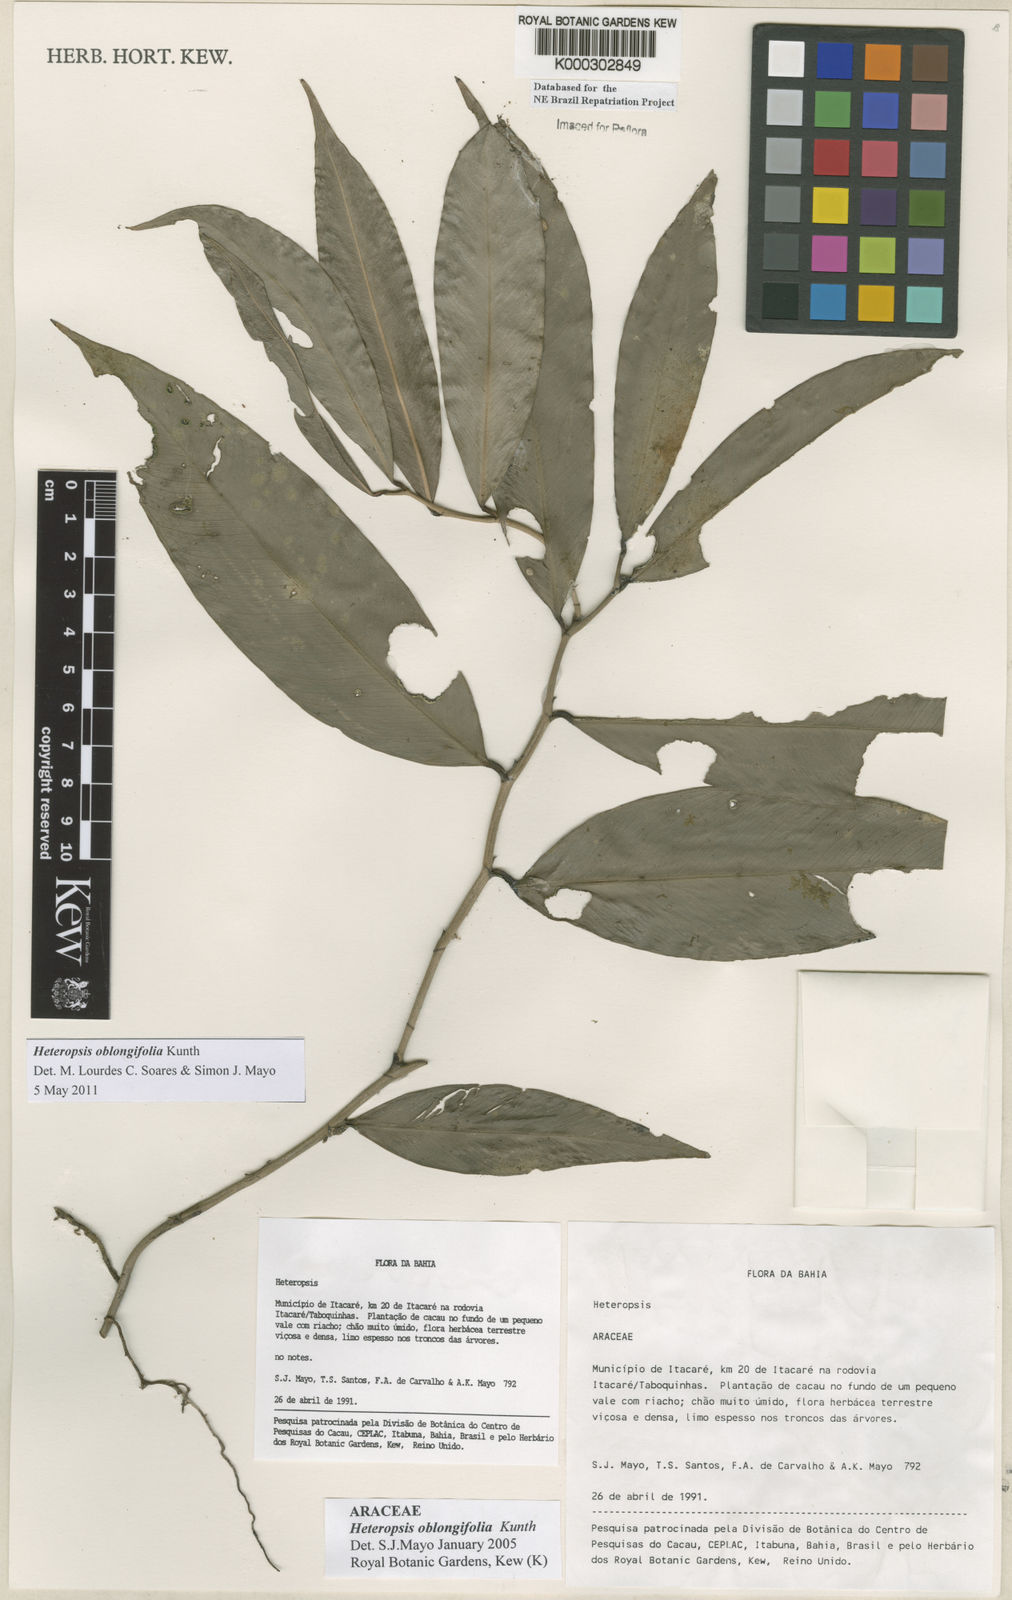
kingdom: Plantae
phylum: Tracheophyta
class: Liliopsida
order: Alismatales
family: Araceae
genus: Heteropsis
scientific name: Heteropsis oblongifolia
